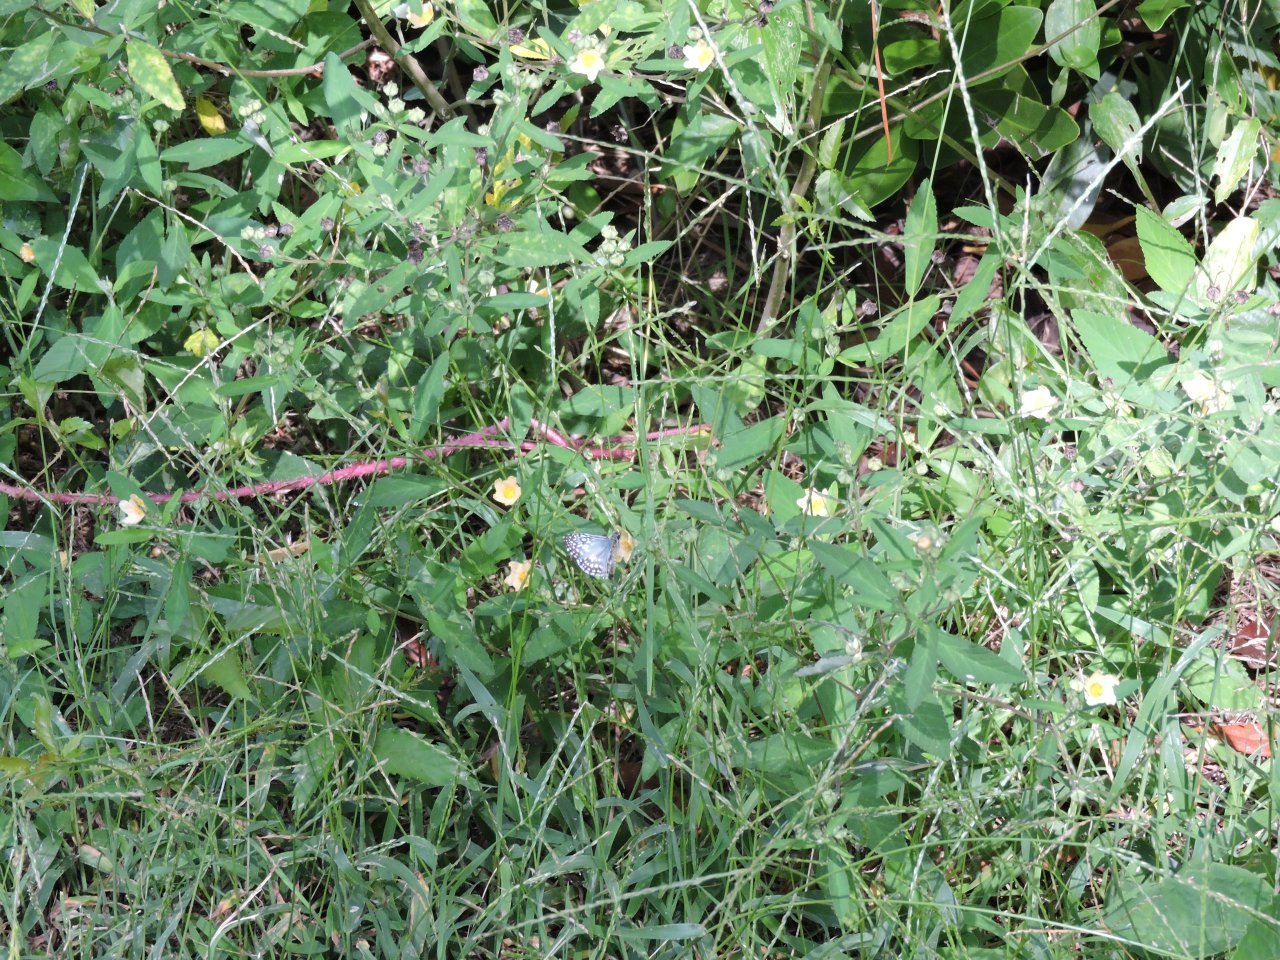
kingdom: Animalia
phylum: Arthropoda
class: Insecta
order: Lepidoptera
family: Hesperiidae
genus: Pyrgus
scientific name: Pyrgus oileus
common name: Tropical Checkered-Skipper
